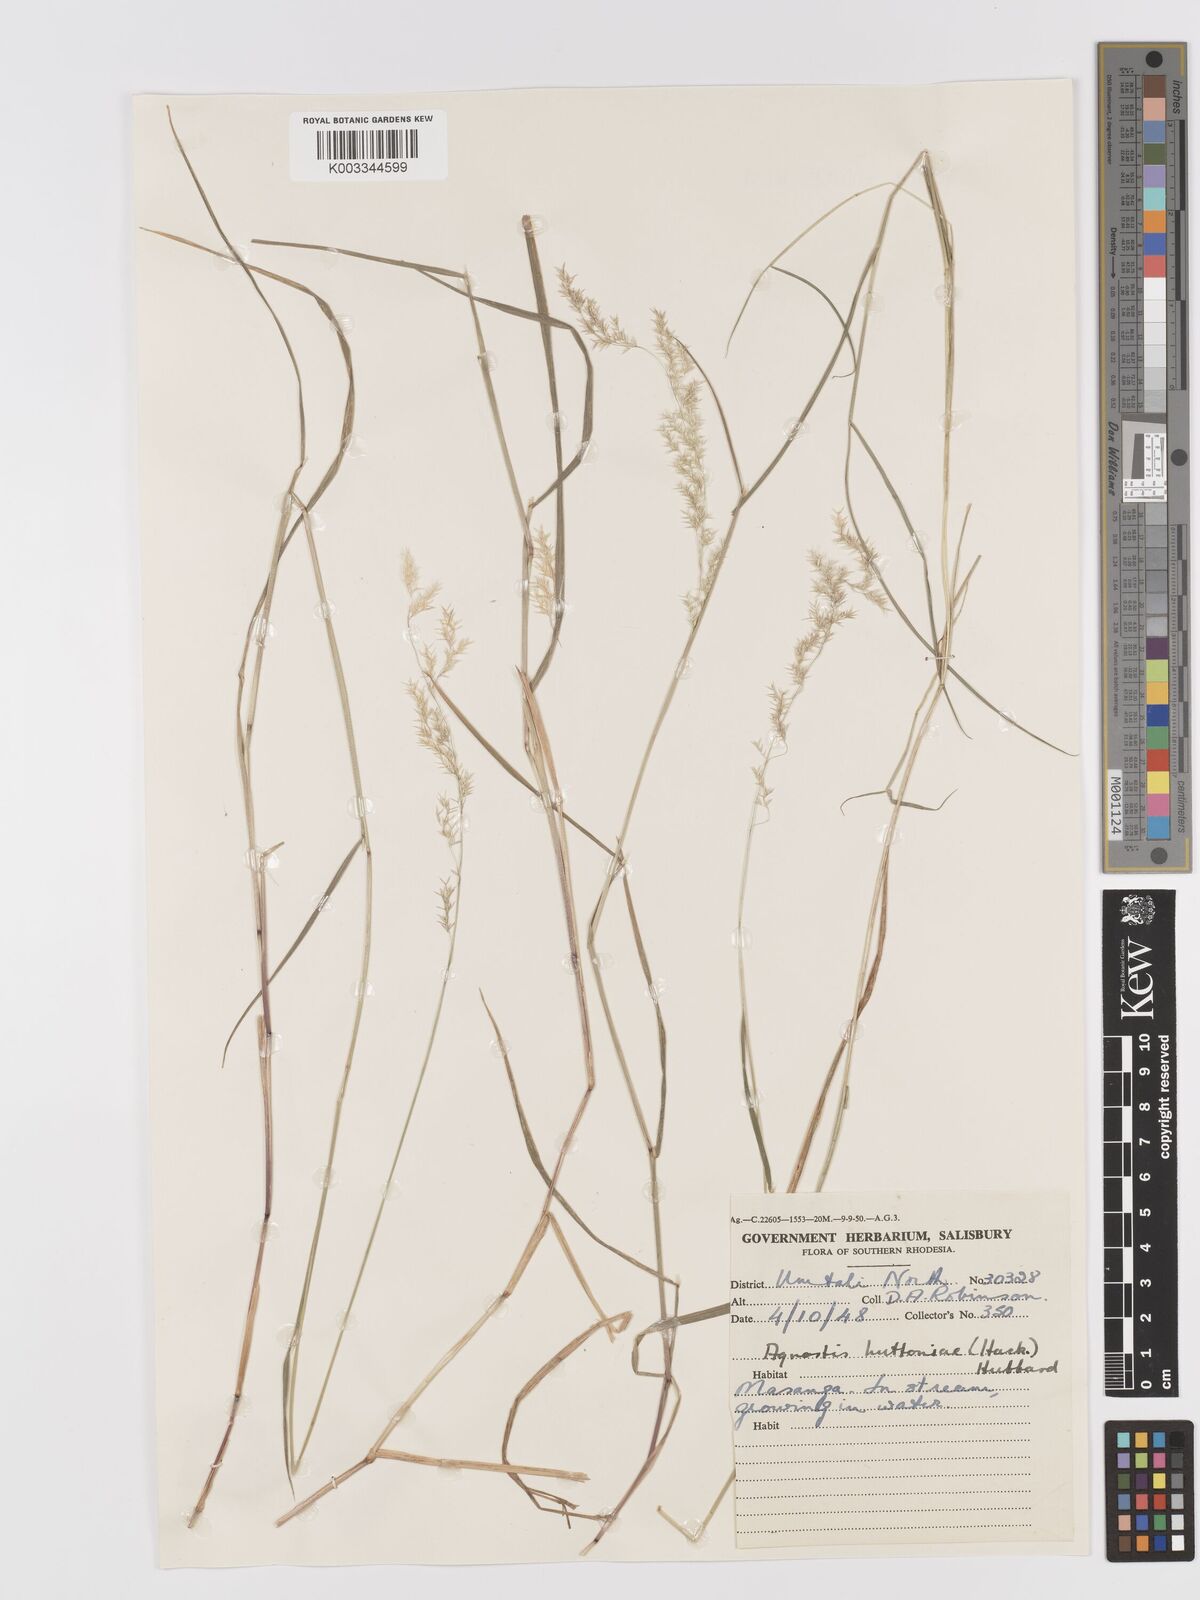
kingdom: Plantae
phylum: Tracheophyta
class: Liliopsida
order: Poales
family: Poaceae
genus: Lachnagrostis
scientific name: Lachnagrostis lachnantha
